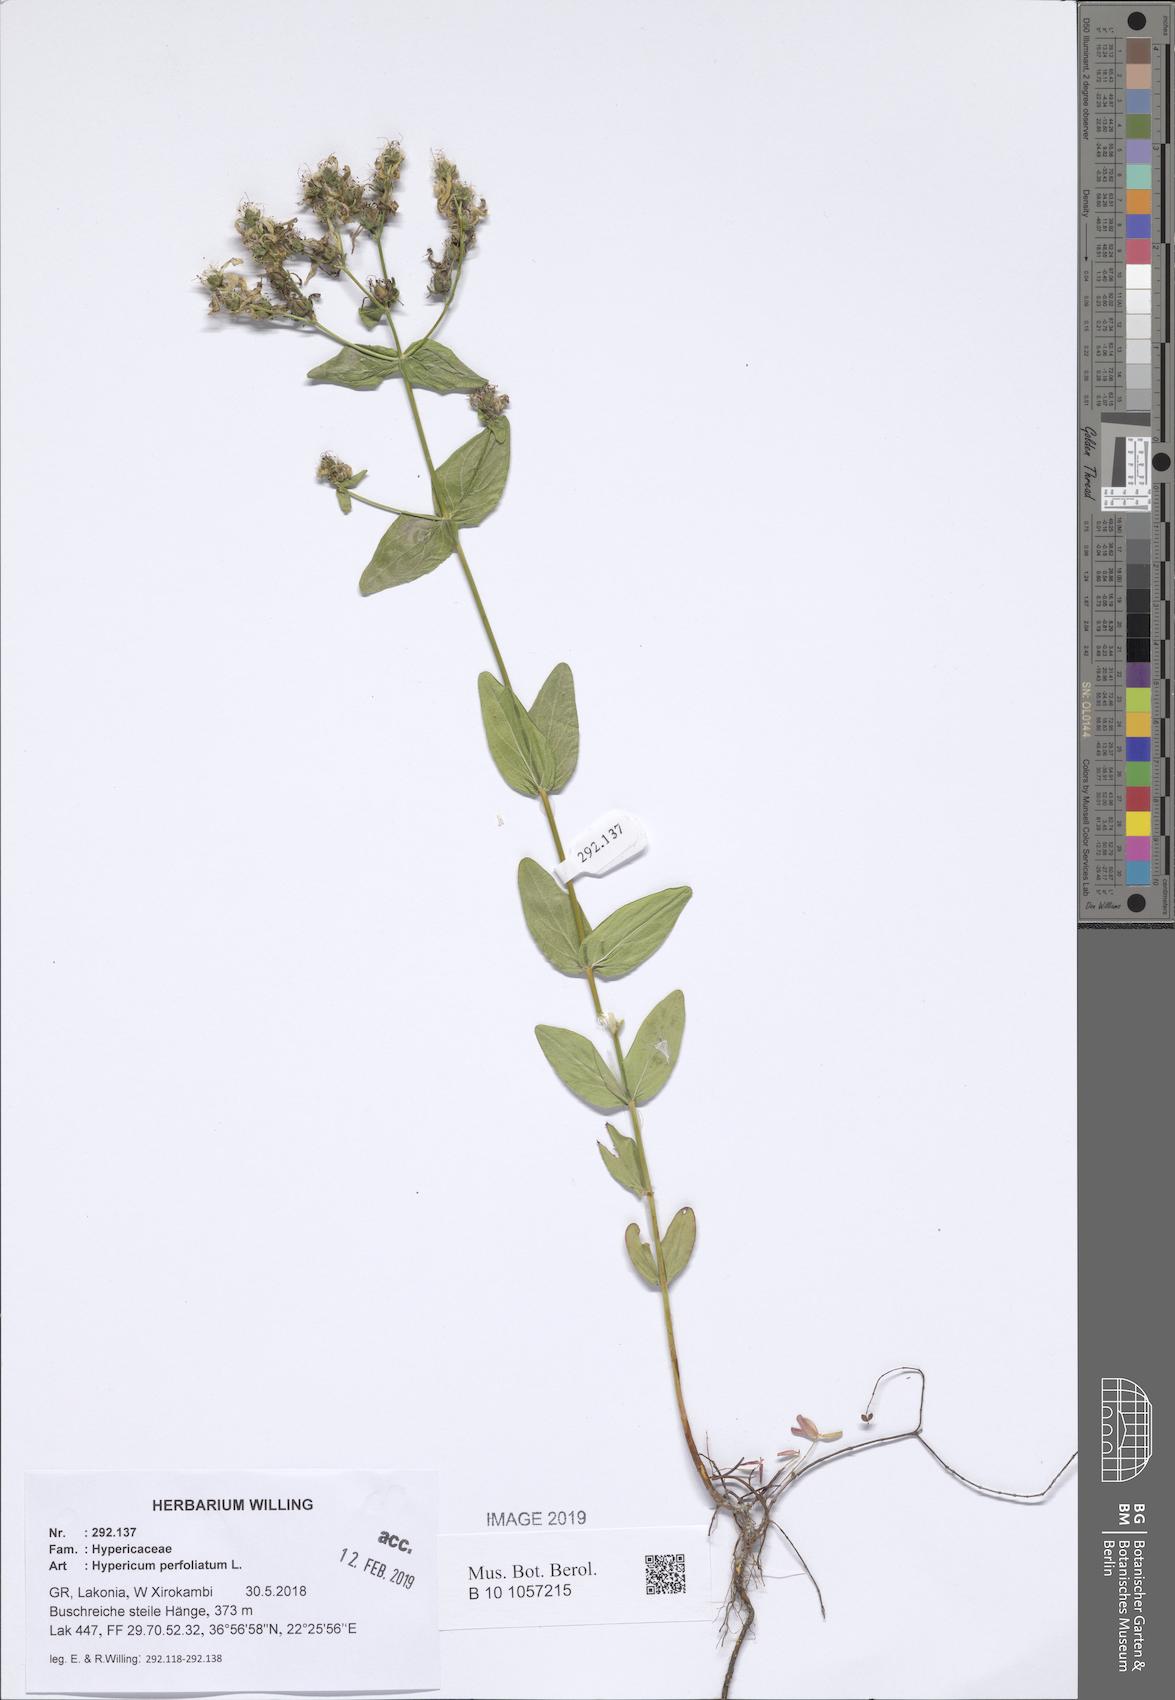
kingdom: Plantae
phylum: Tracheophyta
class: Magnoliopsida
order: Malpighiales
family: Hypericaceae
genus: Hypericum
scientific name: Hypericum perfoliatum
